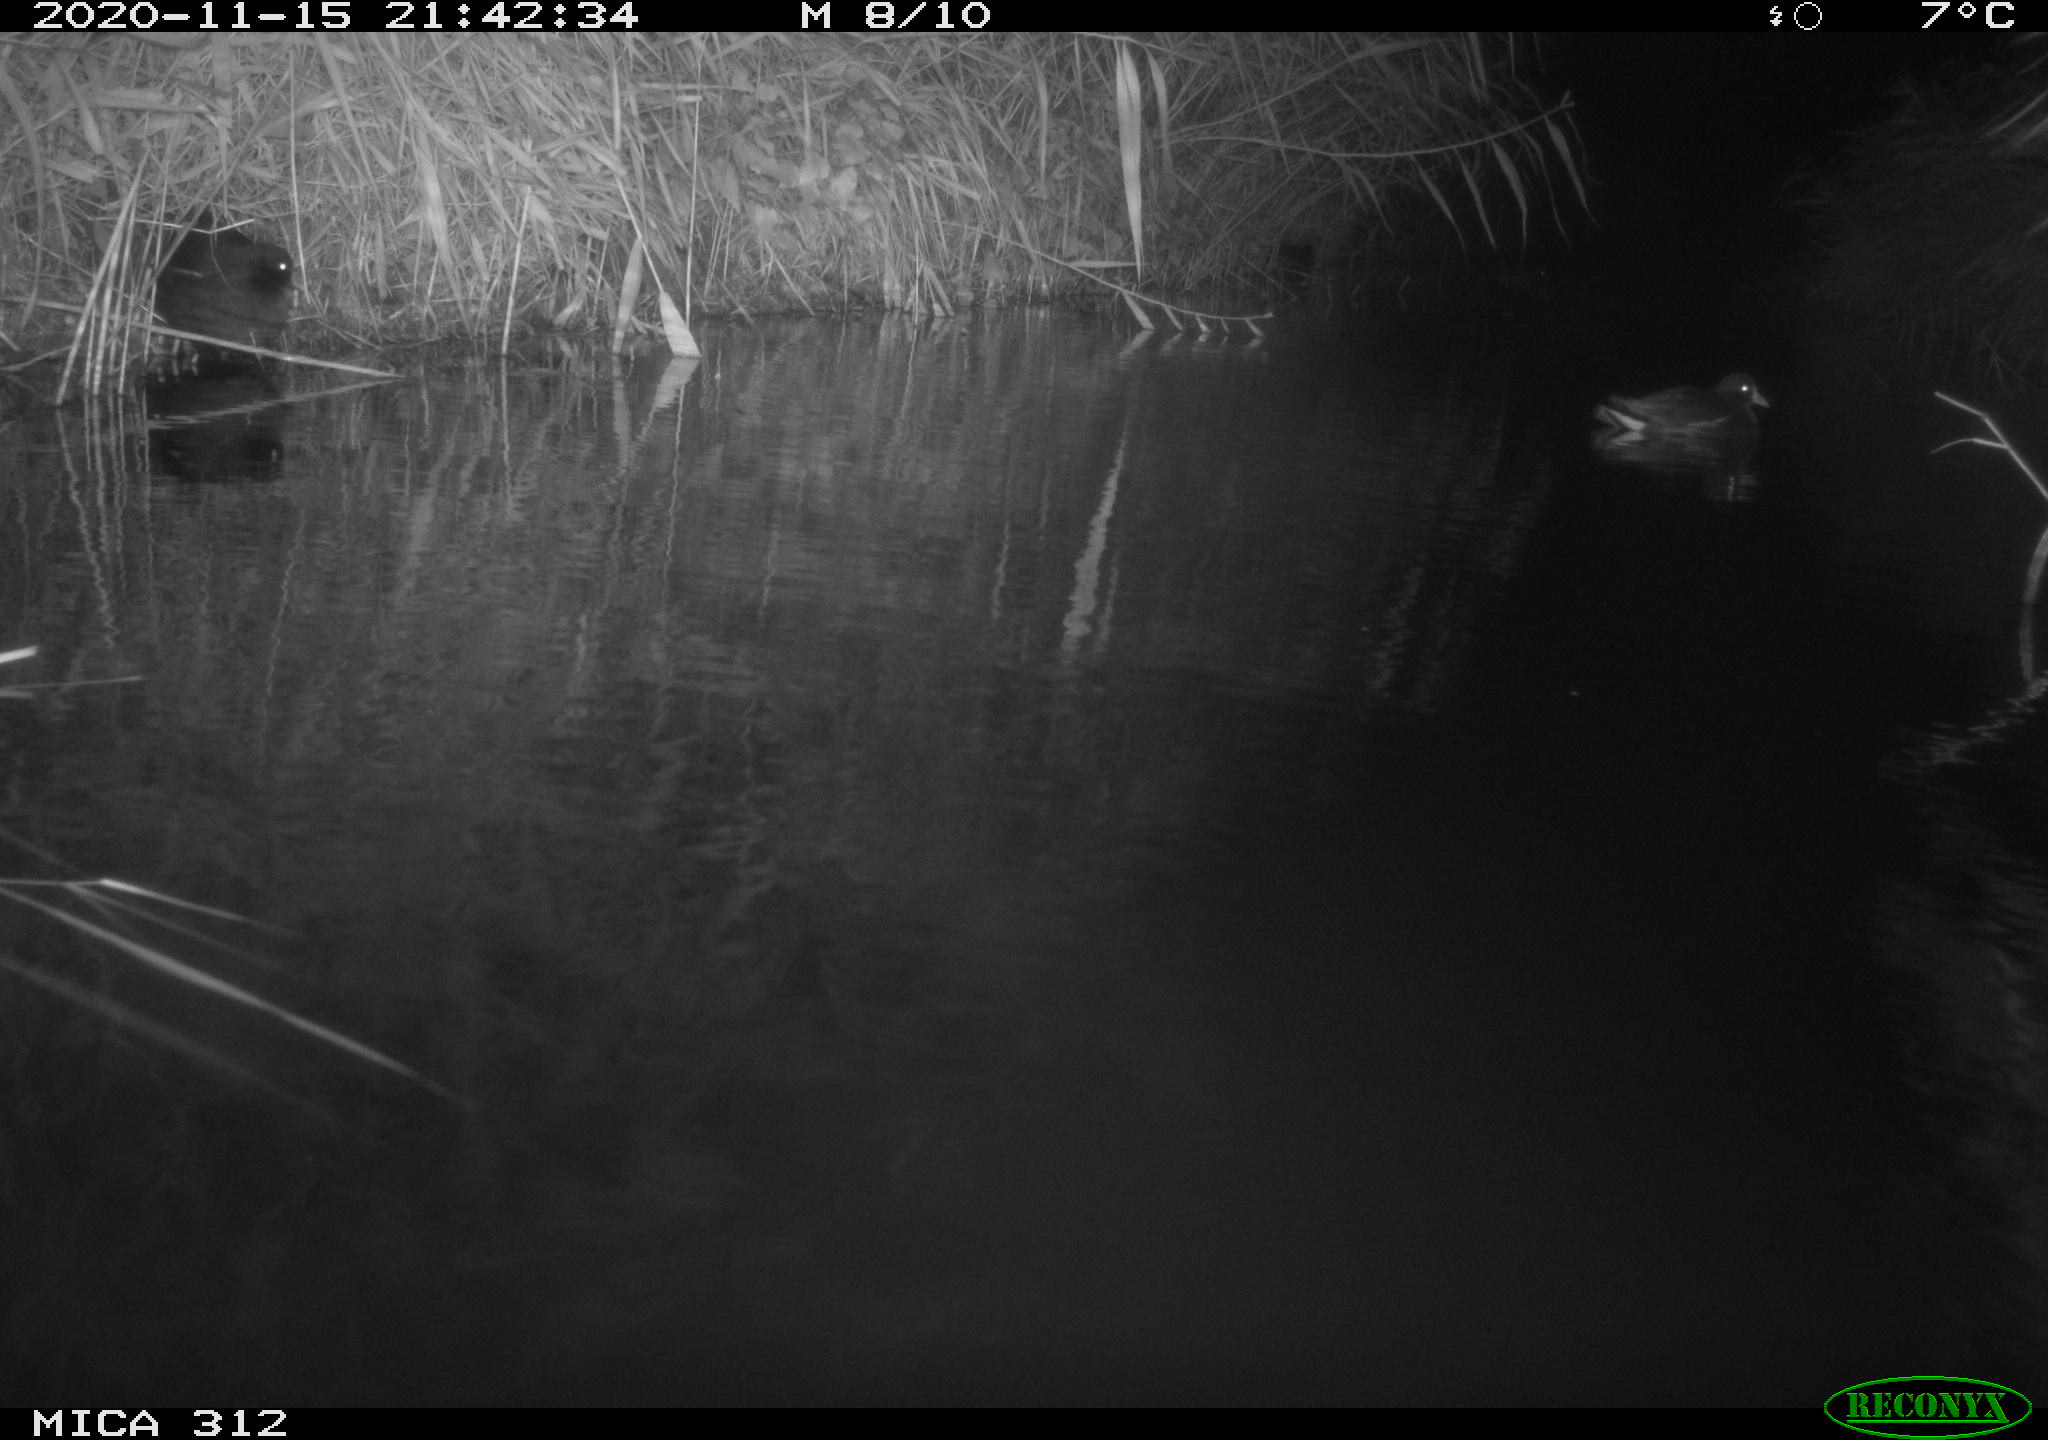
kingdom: Animalia
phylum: Chordata
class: Aves
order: Gruiformes
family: Rallidae
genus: Gallinula
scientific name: Gallinula chloropus
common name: Common moorhen
